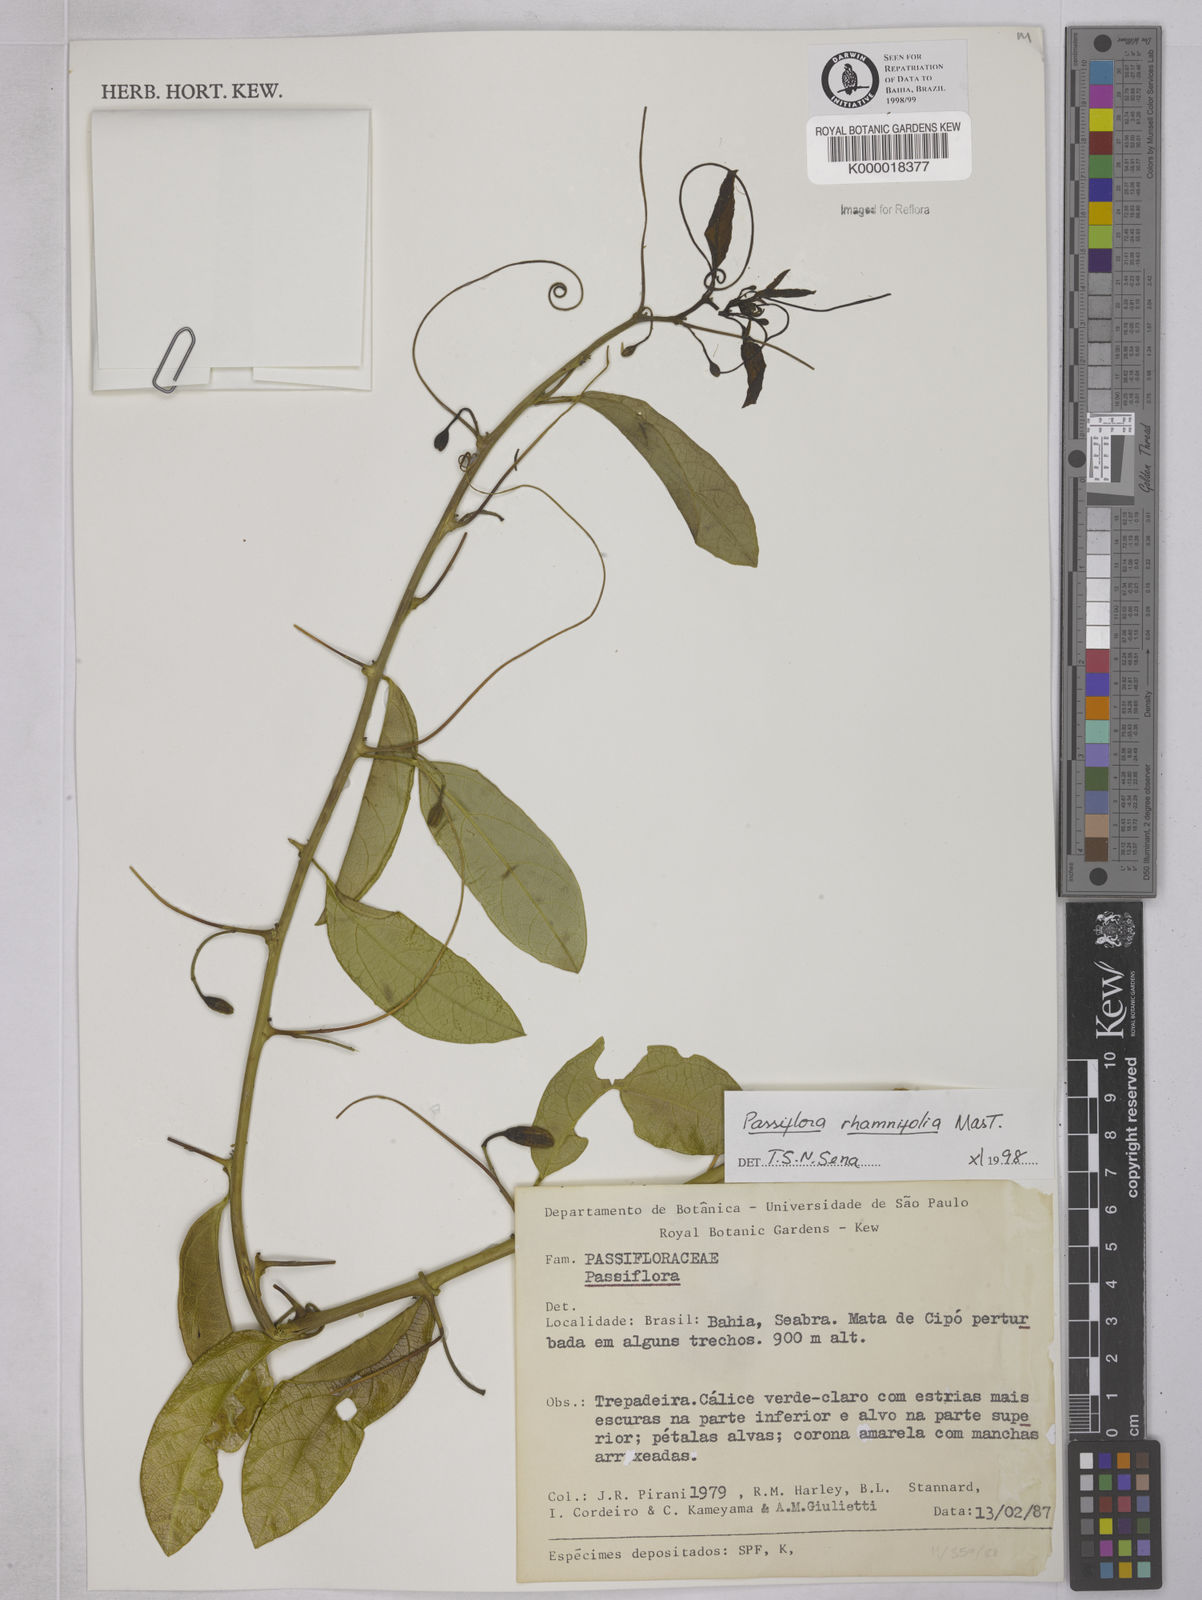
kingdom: Plantae
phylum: Tracheophyta
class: Magnoliopsida
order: Malpighiales
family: Passifloraceae
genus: Passiflora
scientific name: Passiflora rhamnifolia
